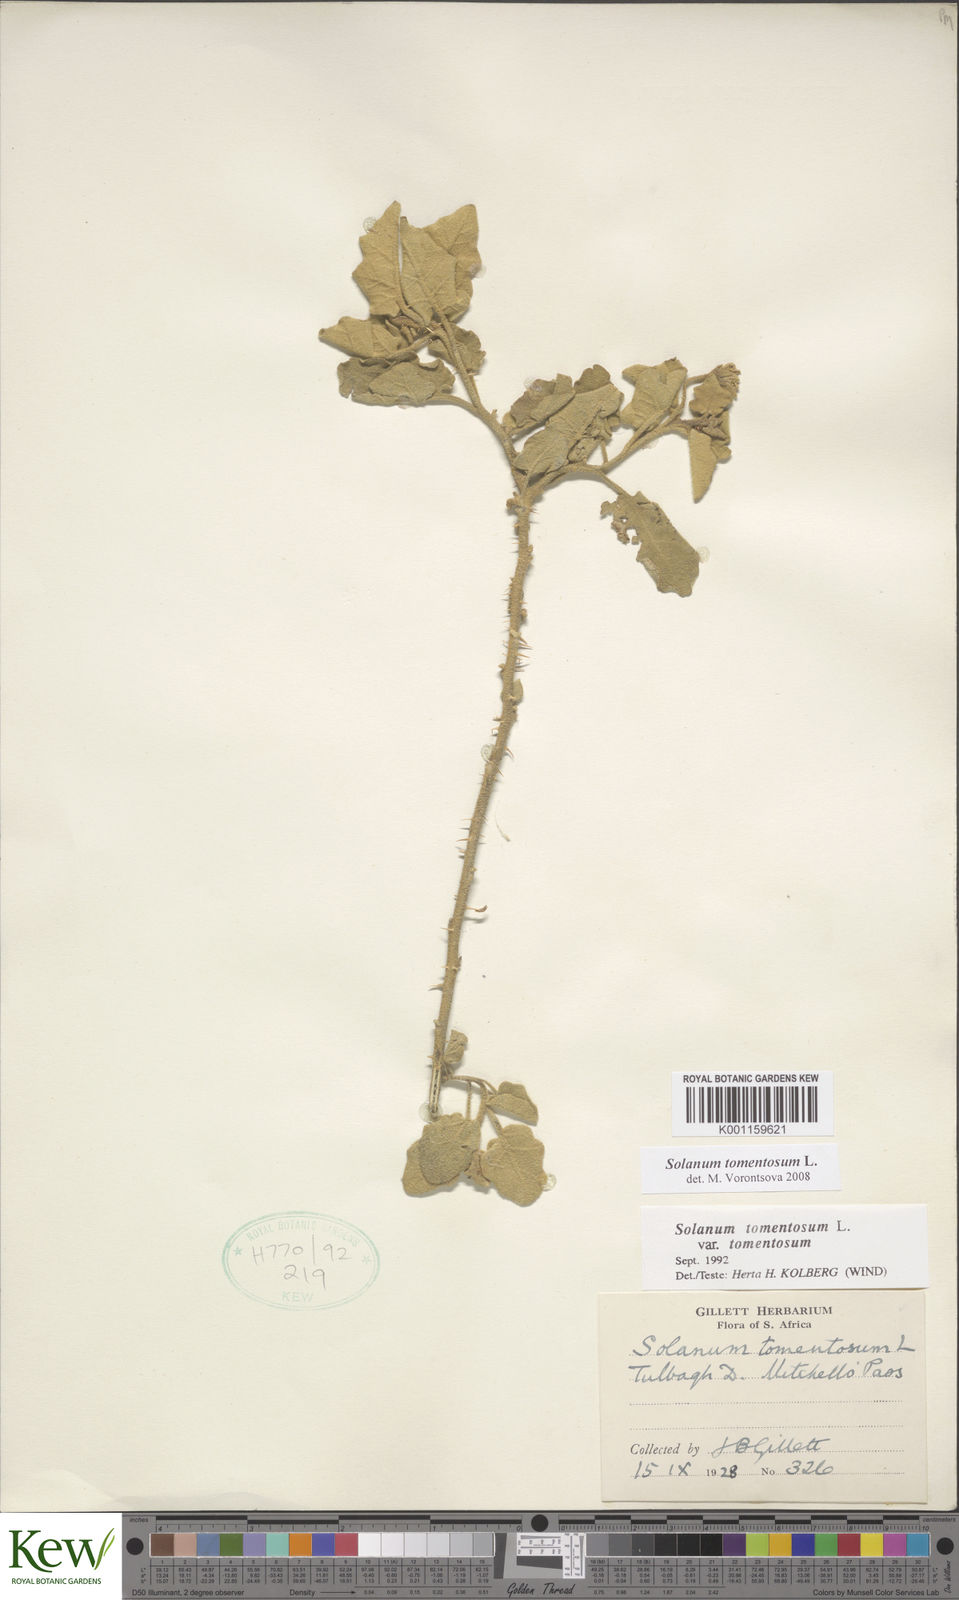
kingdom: Plantae
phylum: Tracheophyta
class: Magnoliopsida
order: Solanales
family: Solanaceae
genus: Solanum
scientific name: Solanum tomentosum
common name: Wild aubergine
